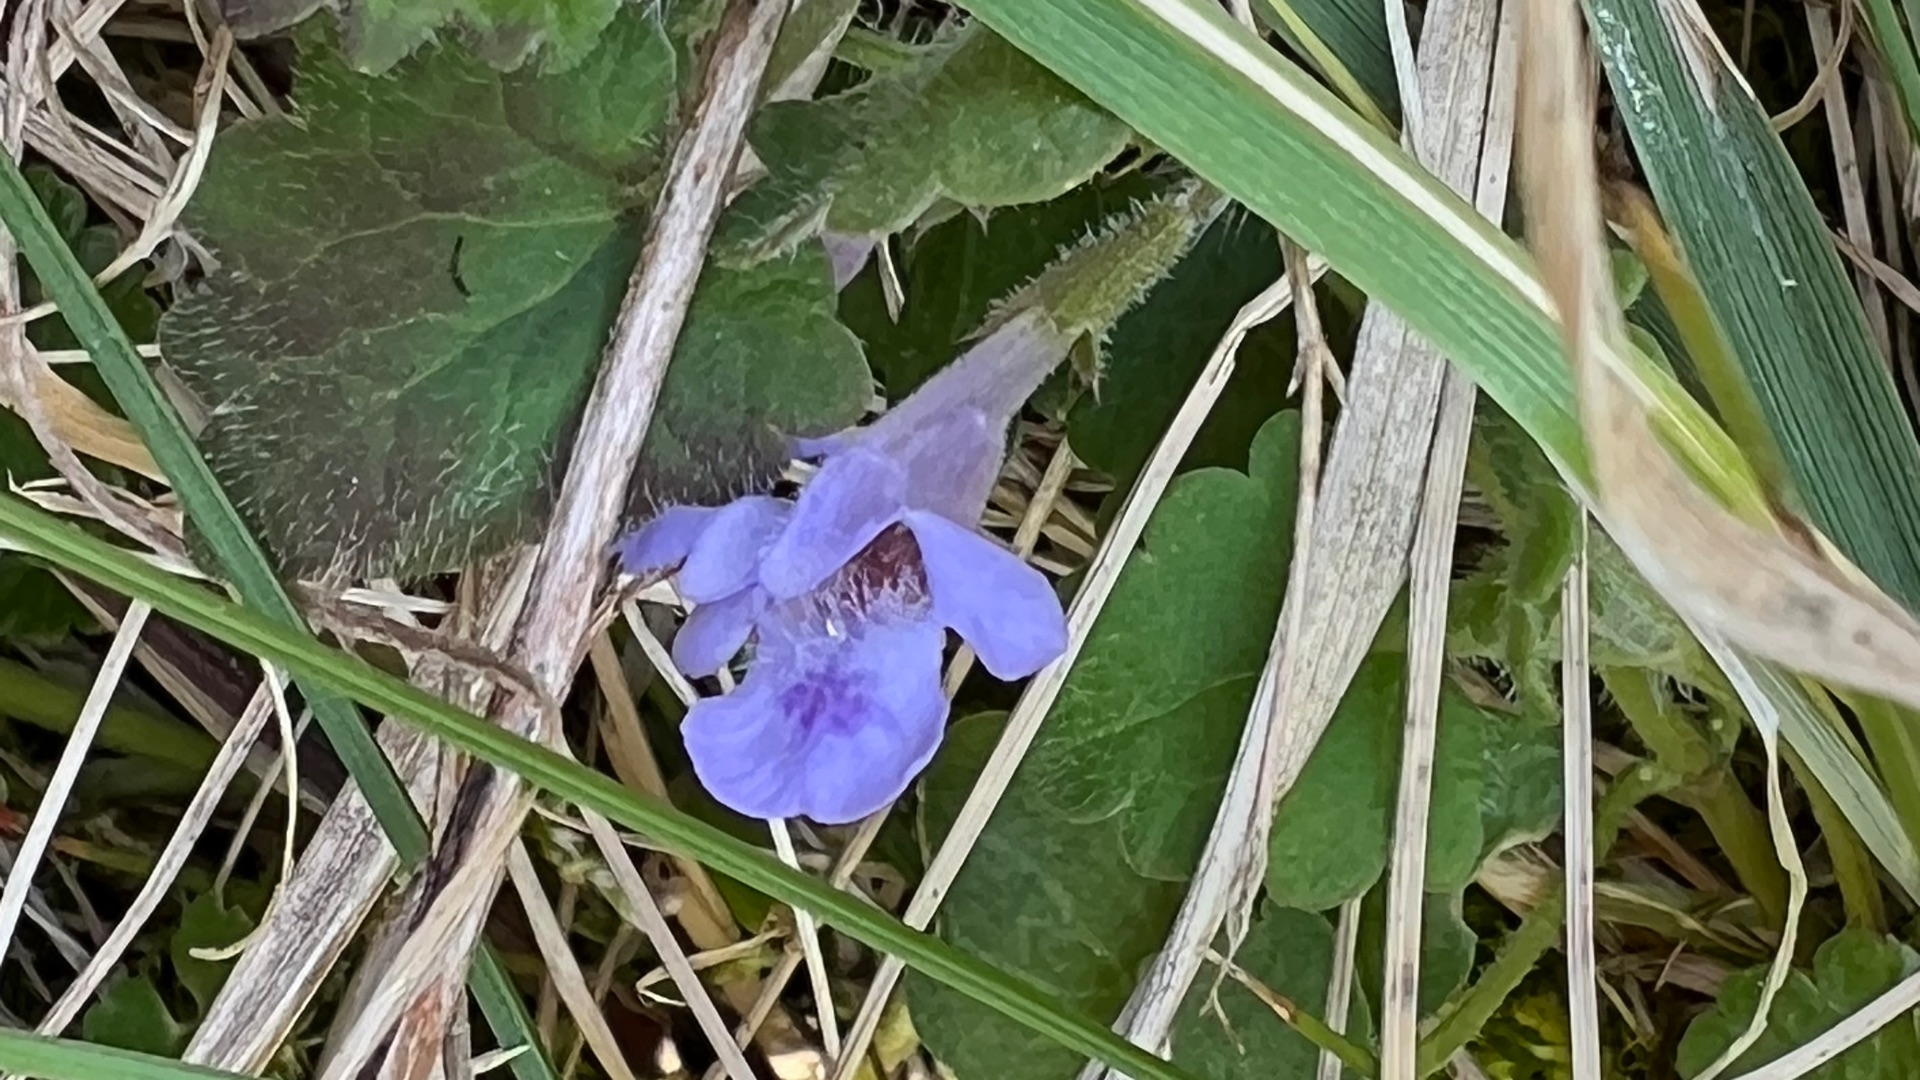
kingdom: Plantae
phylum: Tracheophyta
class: Magnoliopsida
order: Lamiales
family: Lamiaceae
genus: Glechoma
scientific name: Glechoma hederacea
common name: Korsknap
